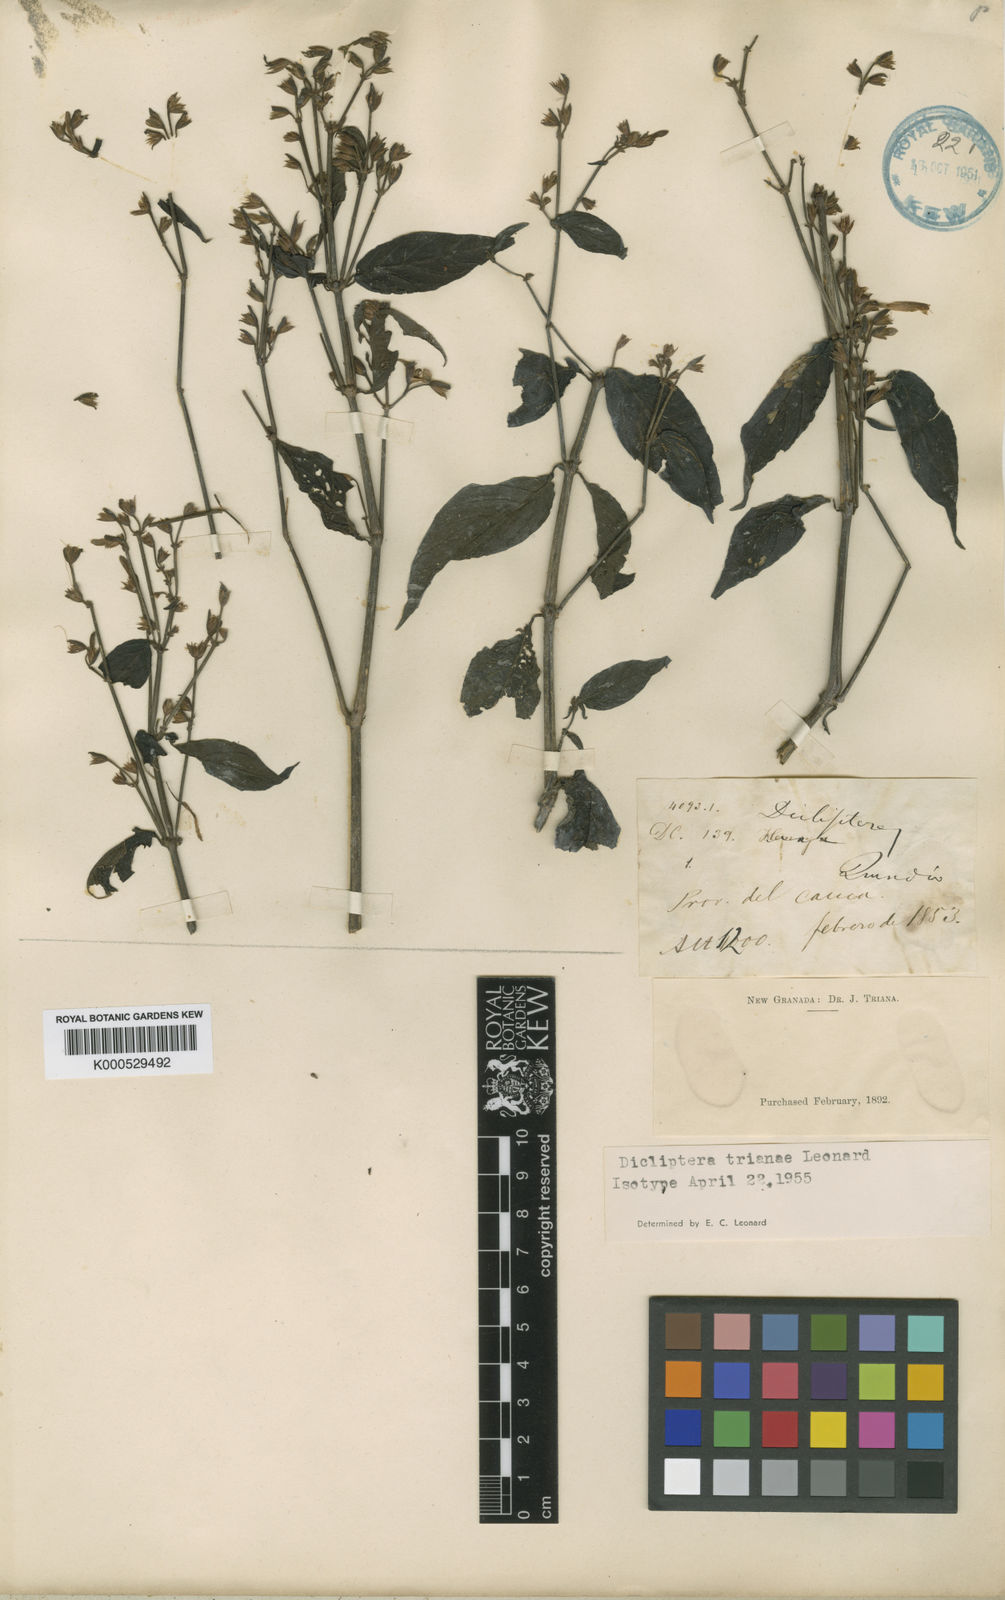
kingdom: Plantae
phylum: Tracheophyta
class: Magnoliopsida
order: Lamiales
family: Acanthaceae
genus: Dicliptera
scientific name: Dicliptera trianae
